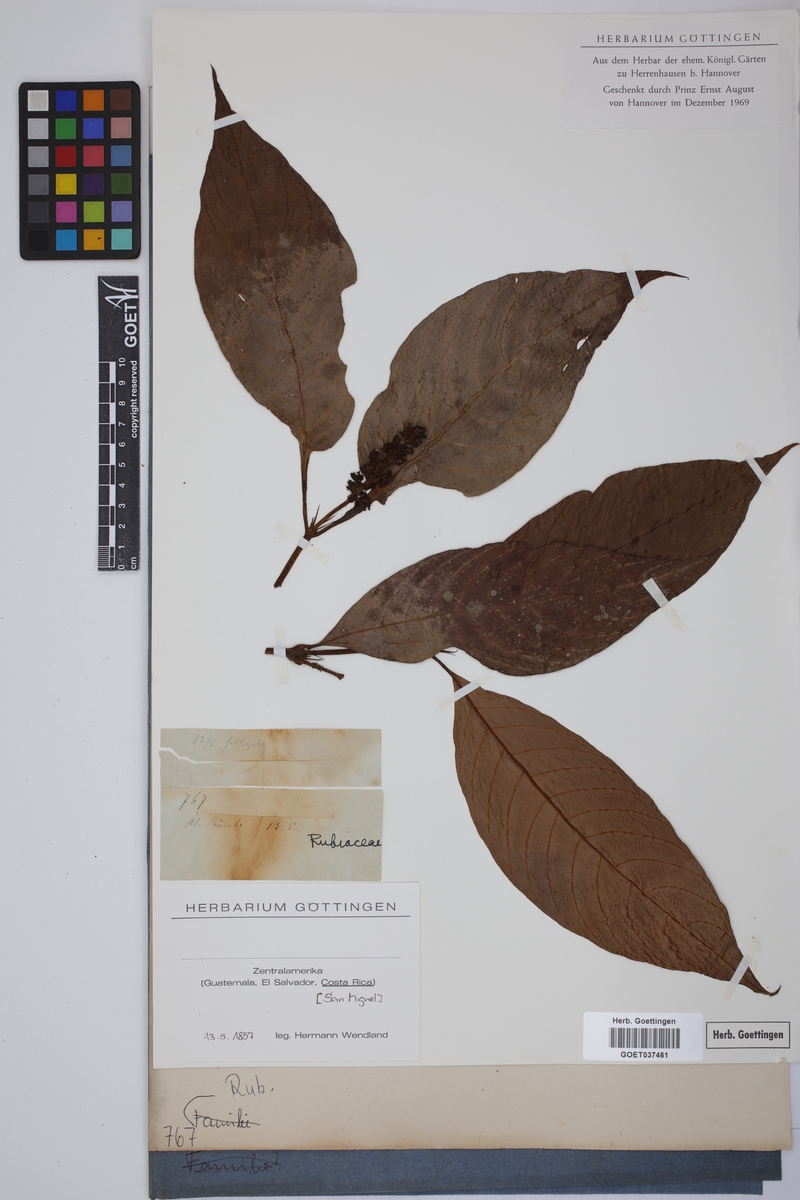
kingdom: Plantae
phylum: Tracheophyta
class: Magnoliopsida
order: Gentianales
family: Rubiaceae
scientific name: Rubiaceae
